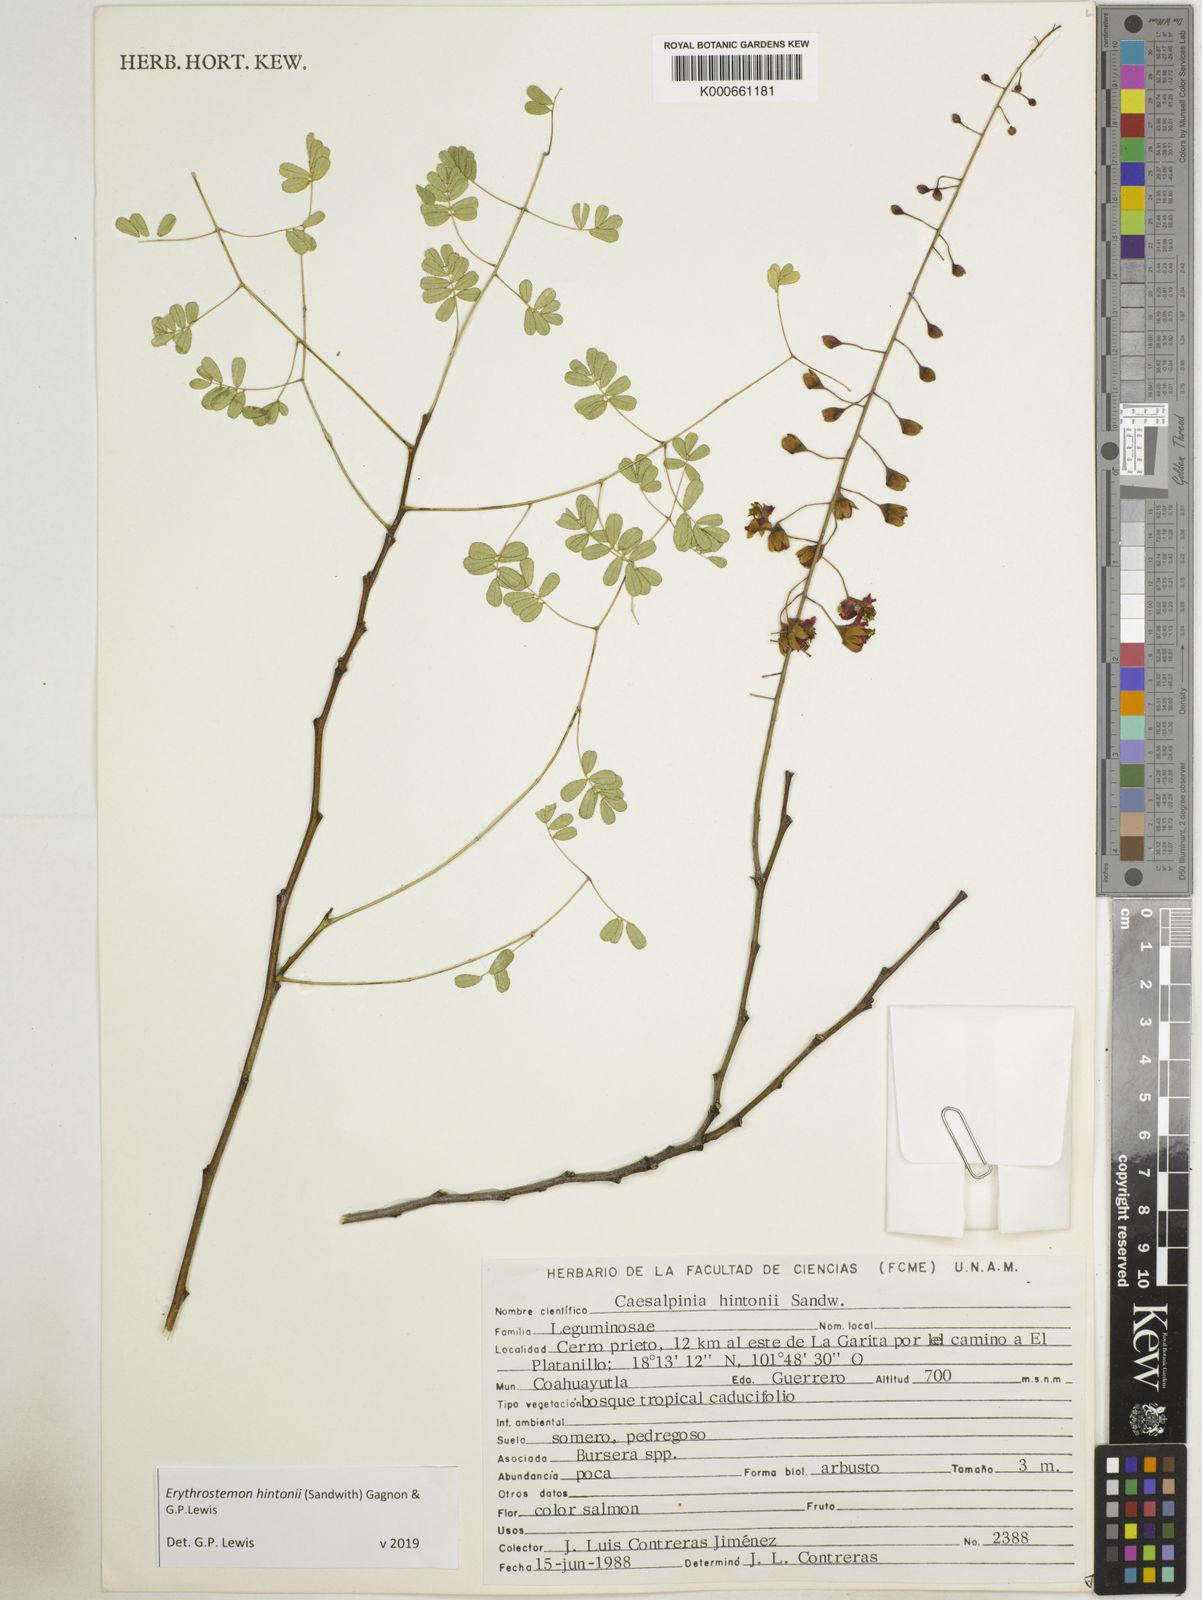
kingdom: Plantae
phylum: Tracheophyta
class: Magnoliopsida
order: Fabales
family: Fabaceae
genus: Erythrostemon
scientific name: Erythrostemon hintonii
